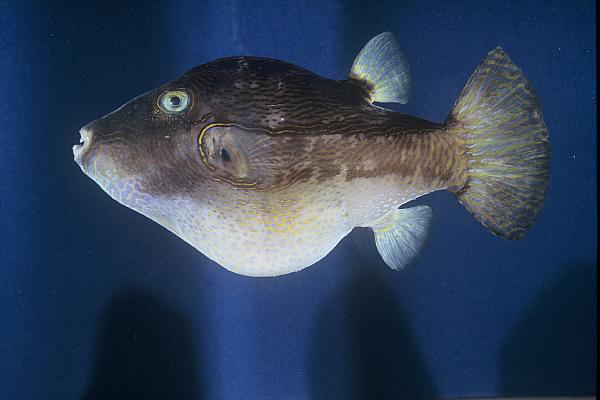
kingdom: Animalia
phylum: Chordata
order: Tetraodontiformes
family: Tetraodontidae
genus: Canthigaster
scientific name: Canthigaster smithae
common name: Bicolored toby
